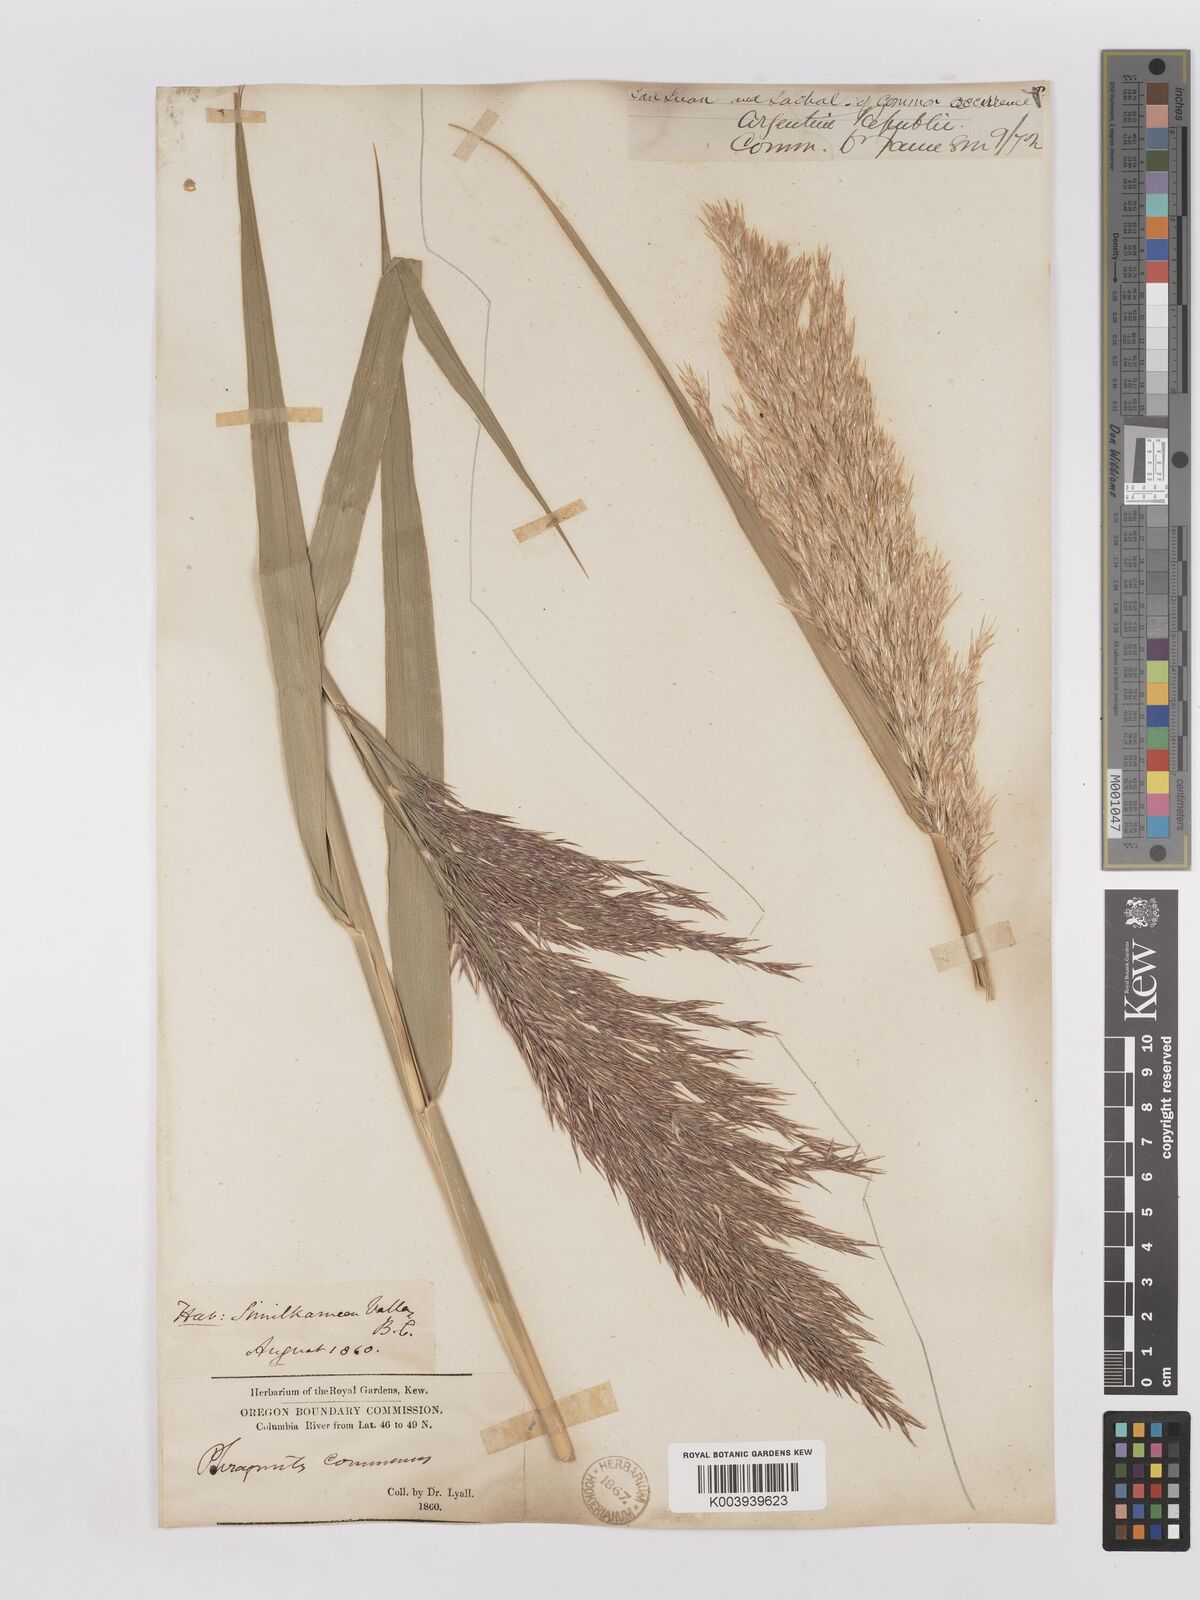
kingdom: Plantae
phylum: Tracheophyta
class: Liliopsida
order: Poales
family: Poaceae
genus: Phragmites
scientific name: Phragmites australis
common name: Common reed
